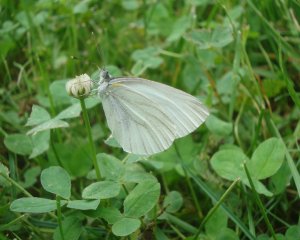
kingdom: Animalia
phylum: Arthropoda
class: Insecta
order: Lepidoptera
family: Pieridae
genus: Pieris
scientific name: Pieris oleracea
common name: Mustard White
